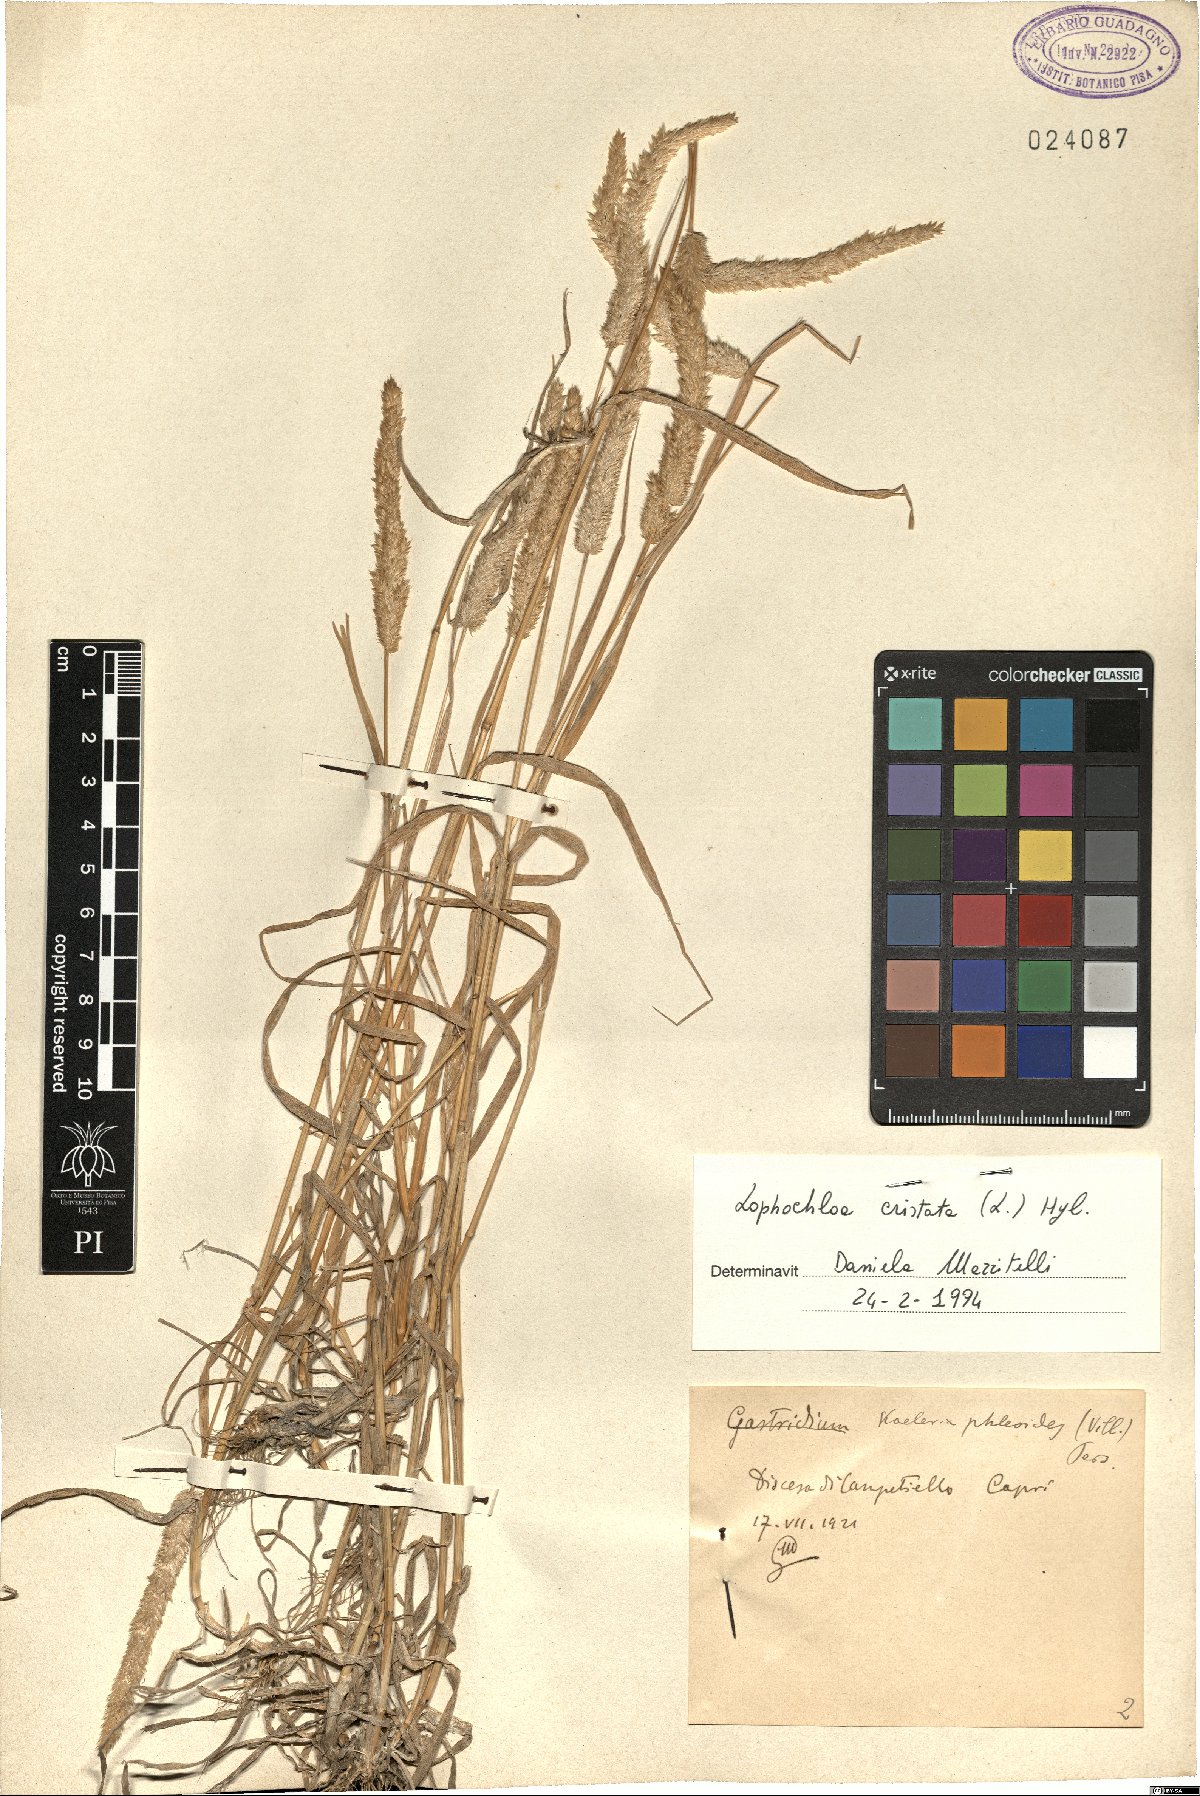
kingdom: Plantae
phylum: Tracheophyta
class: Liliopsida
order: Poales
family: Poaceae
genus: Rostraria
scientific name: Rostraria cristata
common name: Mediterranean hair-grass
